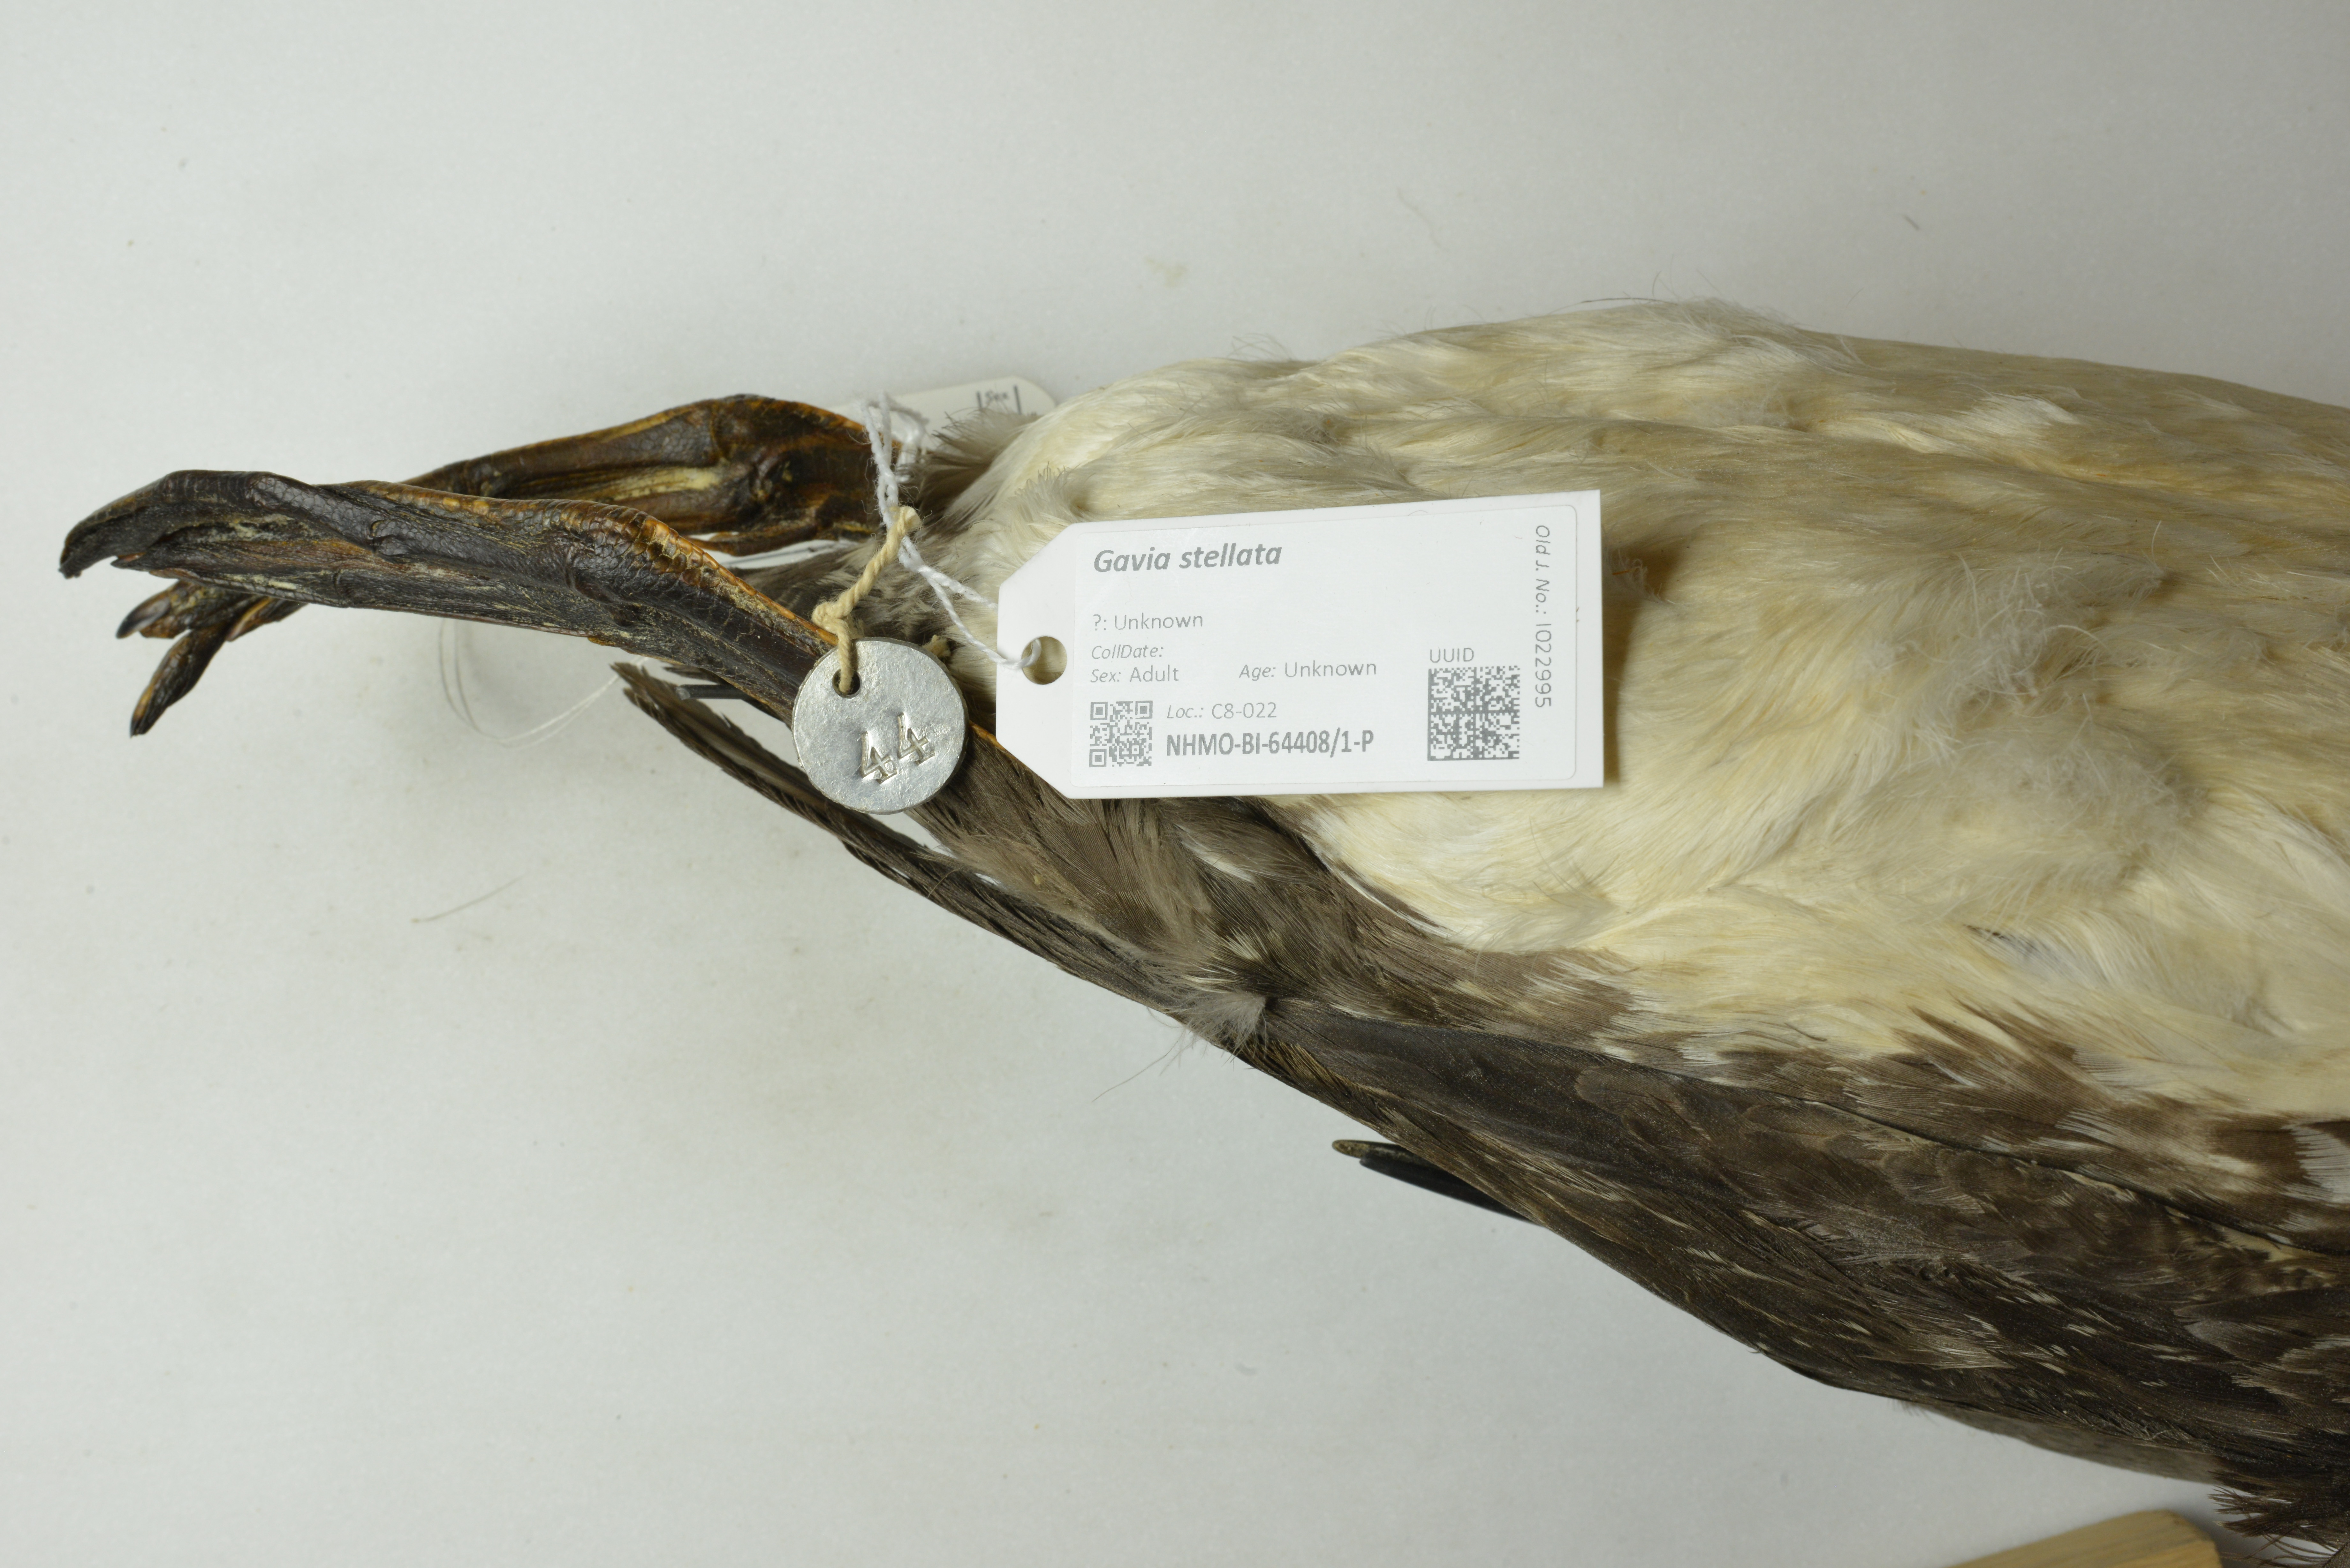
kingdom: Animalia
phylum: Chordata
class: Aves
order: Gaviiformes
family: Gaviidae
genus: Gavia
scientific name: Gavia stellata
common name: Red-throated loon
